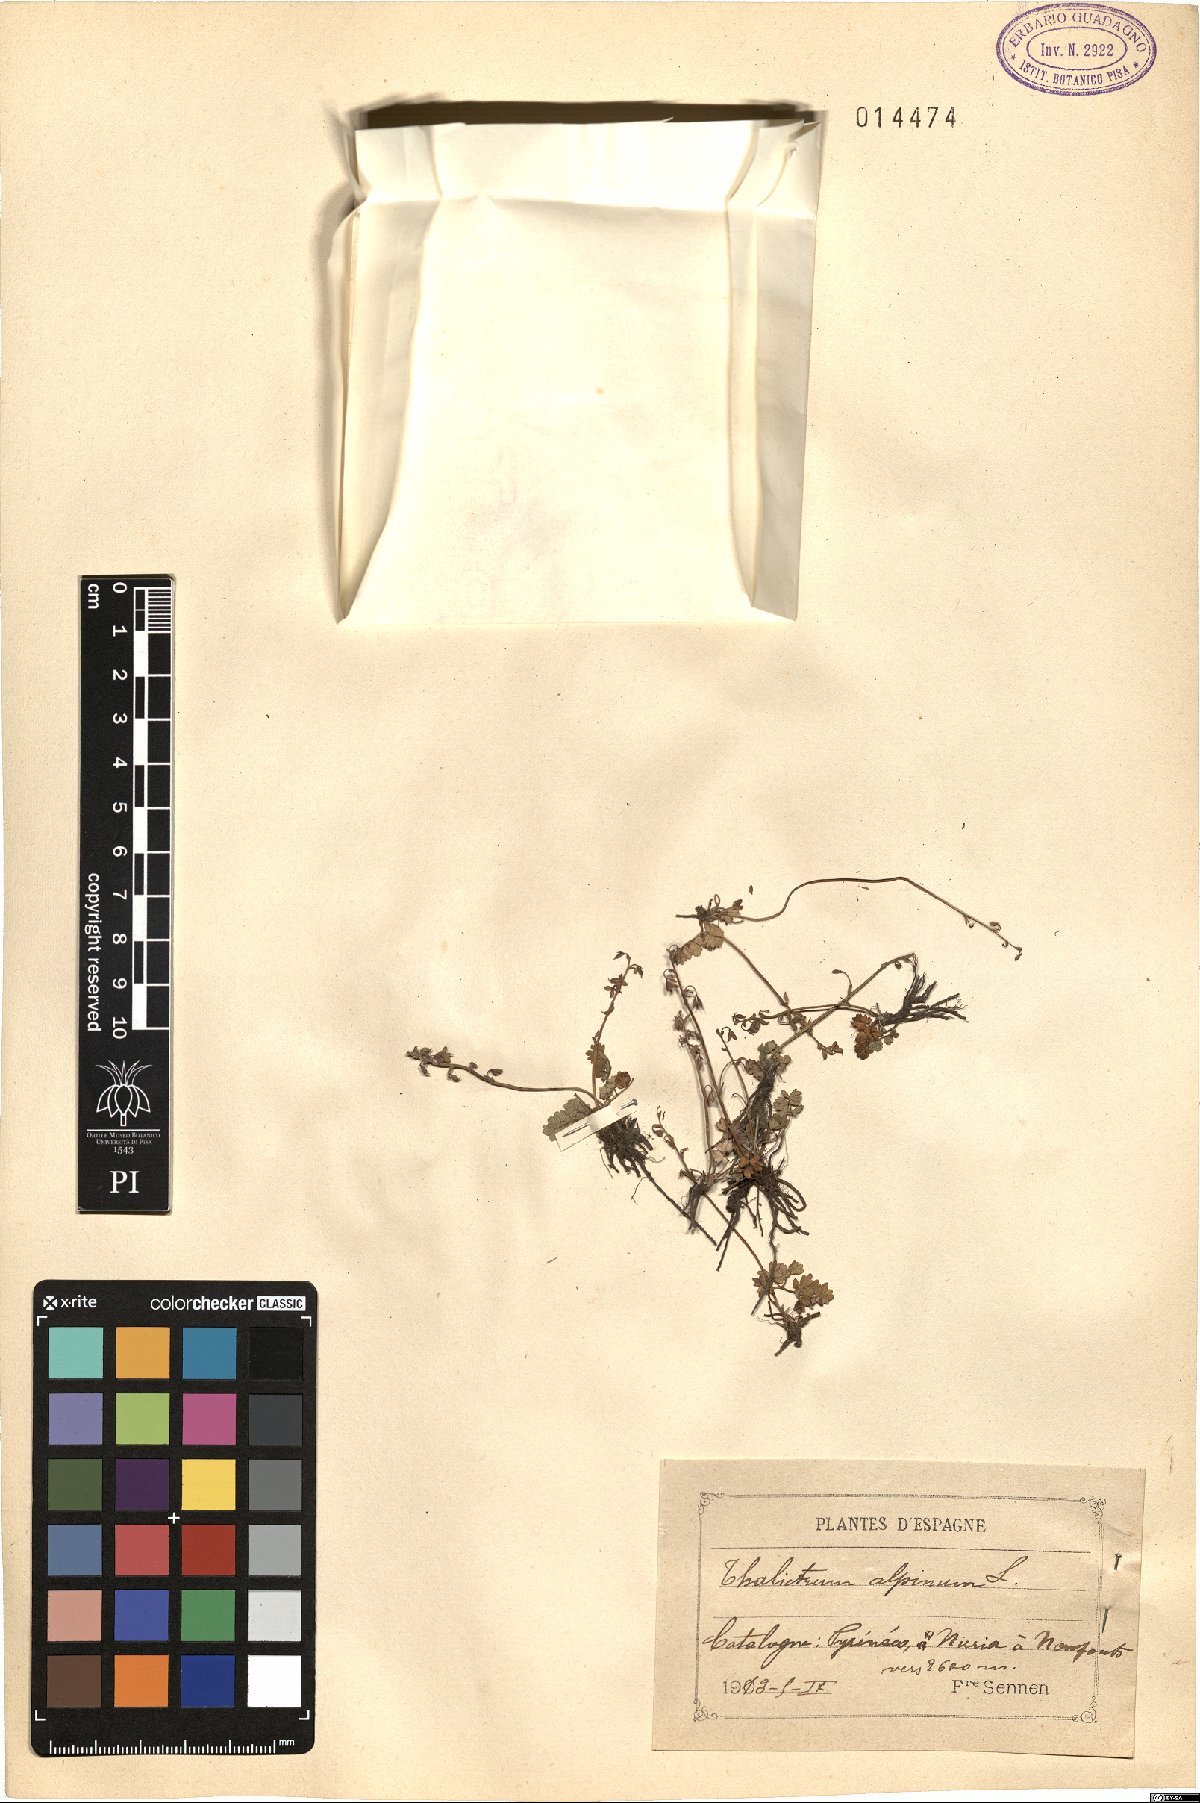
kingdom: Plantae
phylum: Tracheophyta
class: Magnoliopsida
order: Ranunculales
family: Ranunculaceae
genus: Thalictrum
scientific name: Thalictrum alpinum
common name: Alpine meadow-rue
